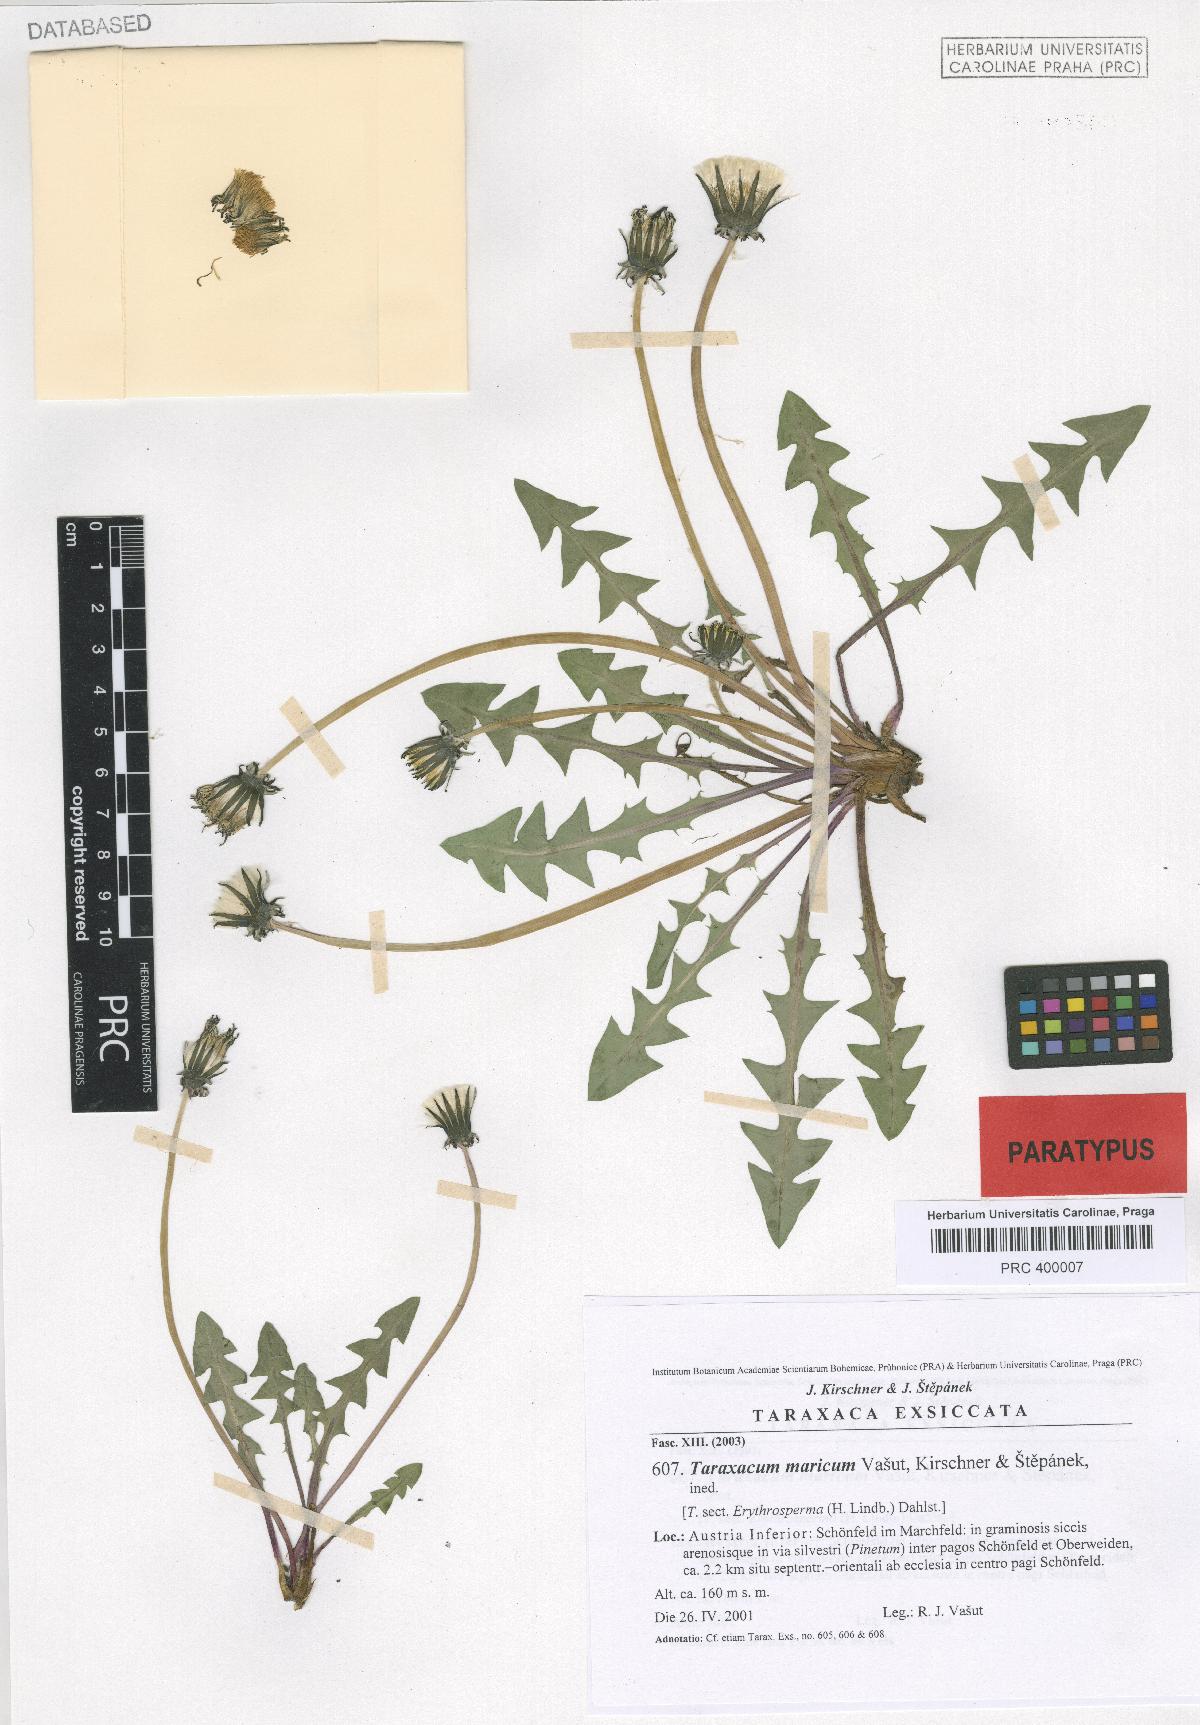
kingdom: Plantae
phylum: Tracheophyta
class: Magnoliopsida
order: Asterales
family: Asteraceae
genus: Taraxacum
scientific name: Taraxacum maricum
